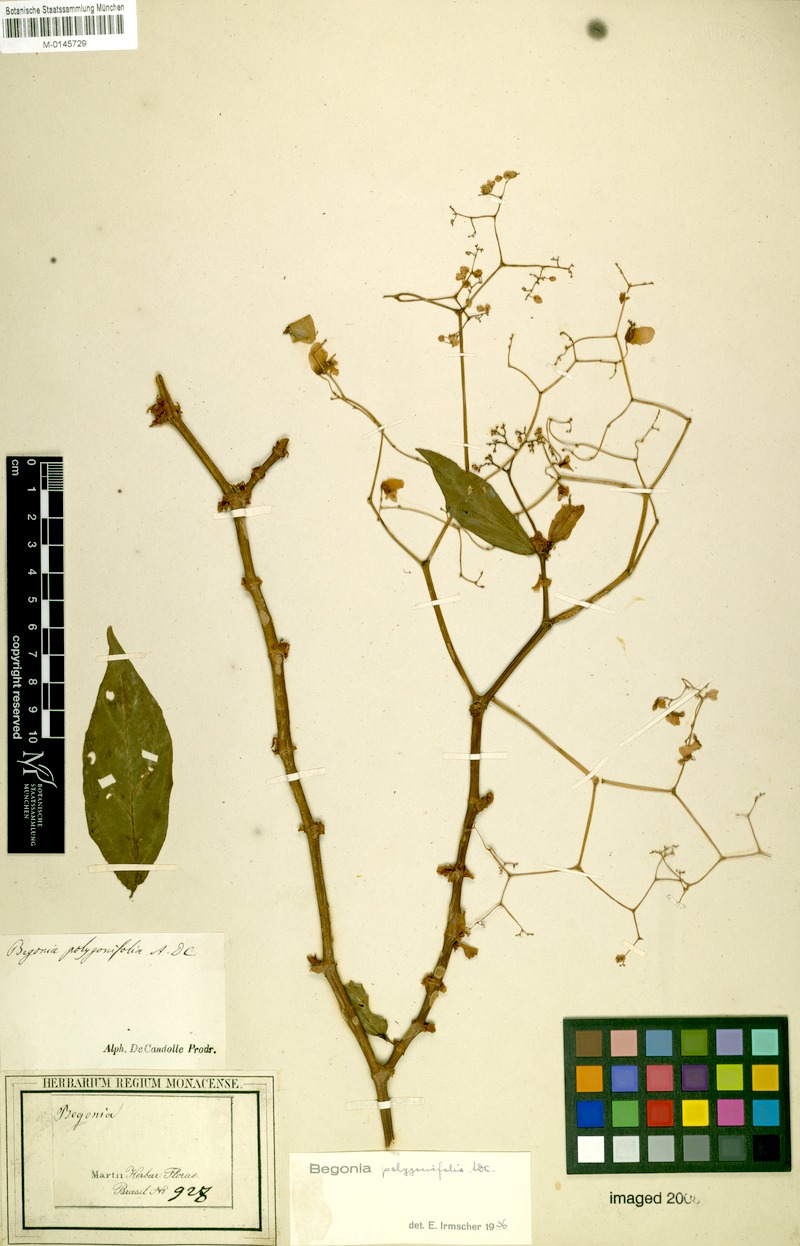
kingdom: Plantae
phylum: Tracheophyta
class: Magnoliopsida
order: Cucurbitales
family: Begoniaceae
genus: Begonia
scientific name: Begonia polygonifolia
